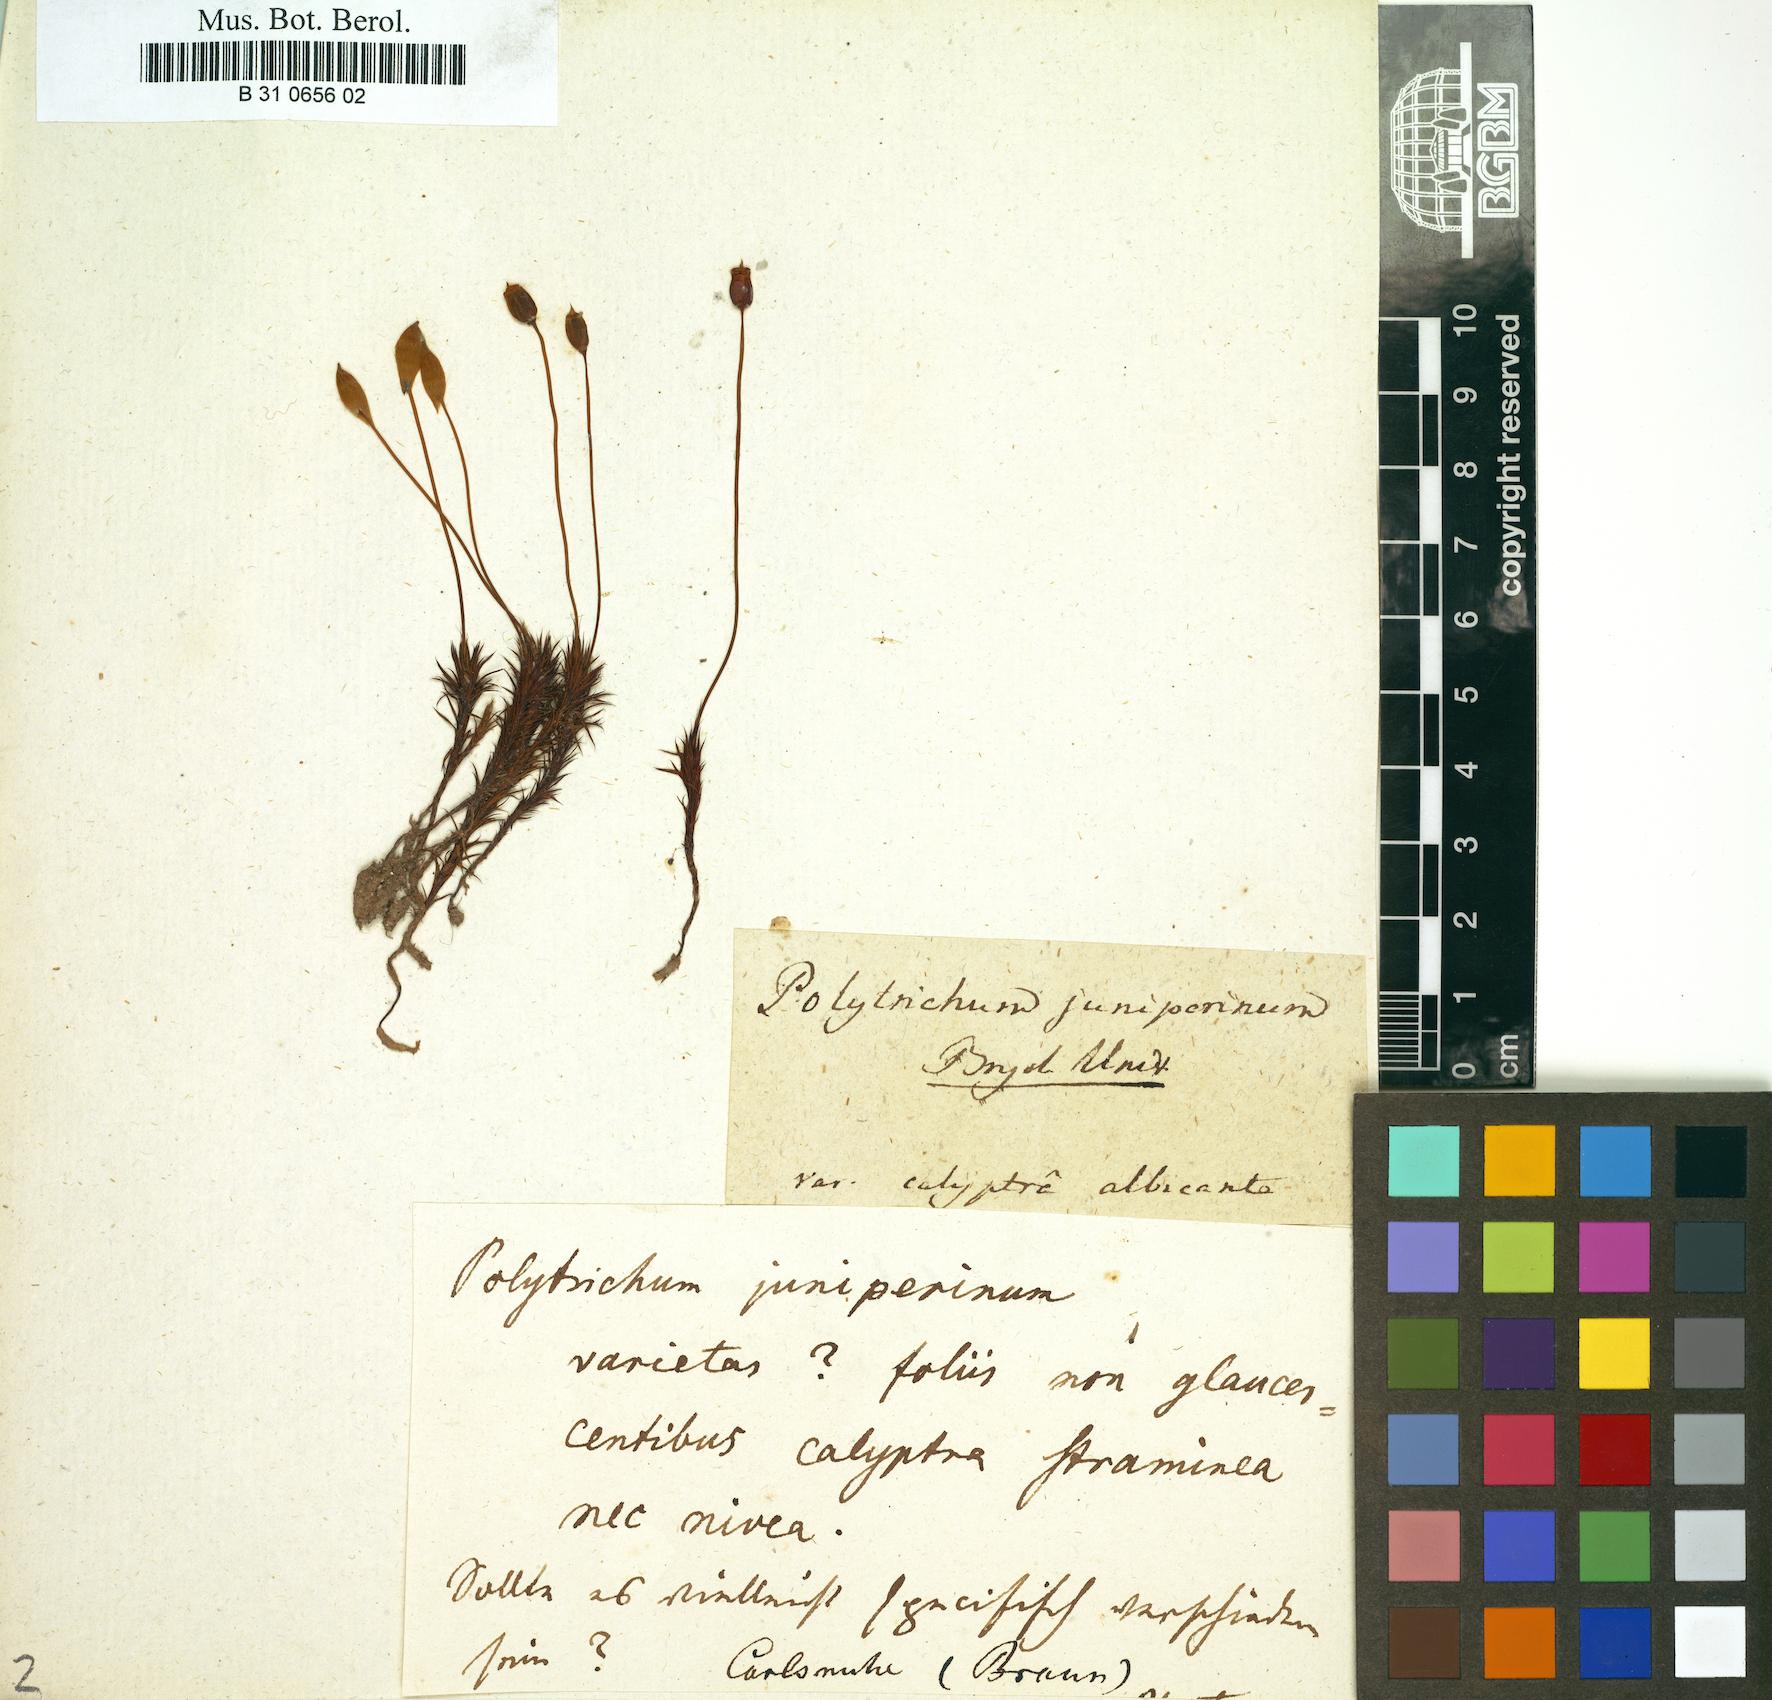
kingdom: Plantae
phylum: Bryophyta
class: Polytrichopsida
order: Polytrichales
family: Polytrichaceae
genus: Polytrichum
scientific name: Polytrichum juniperinum
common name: Juniper haircap moss
